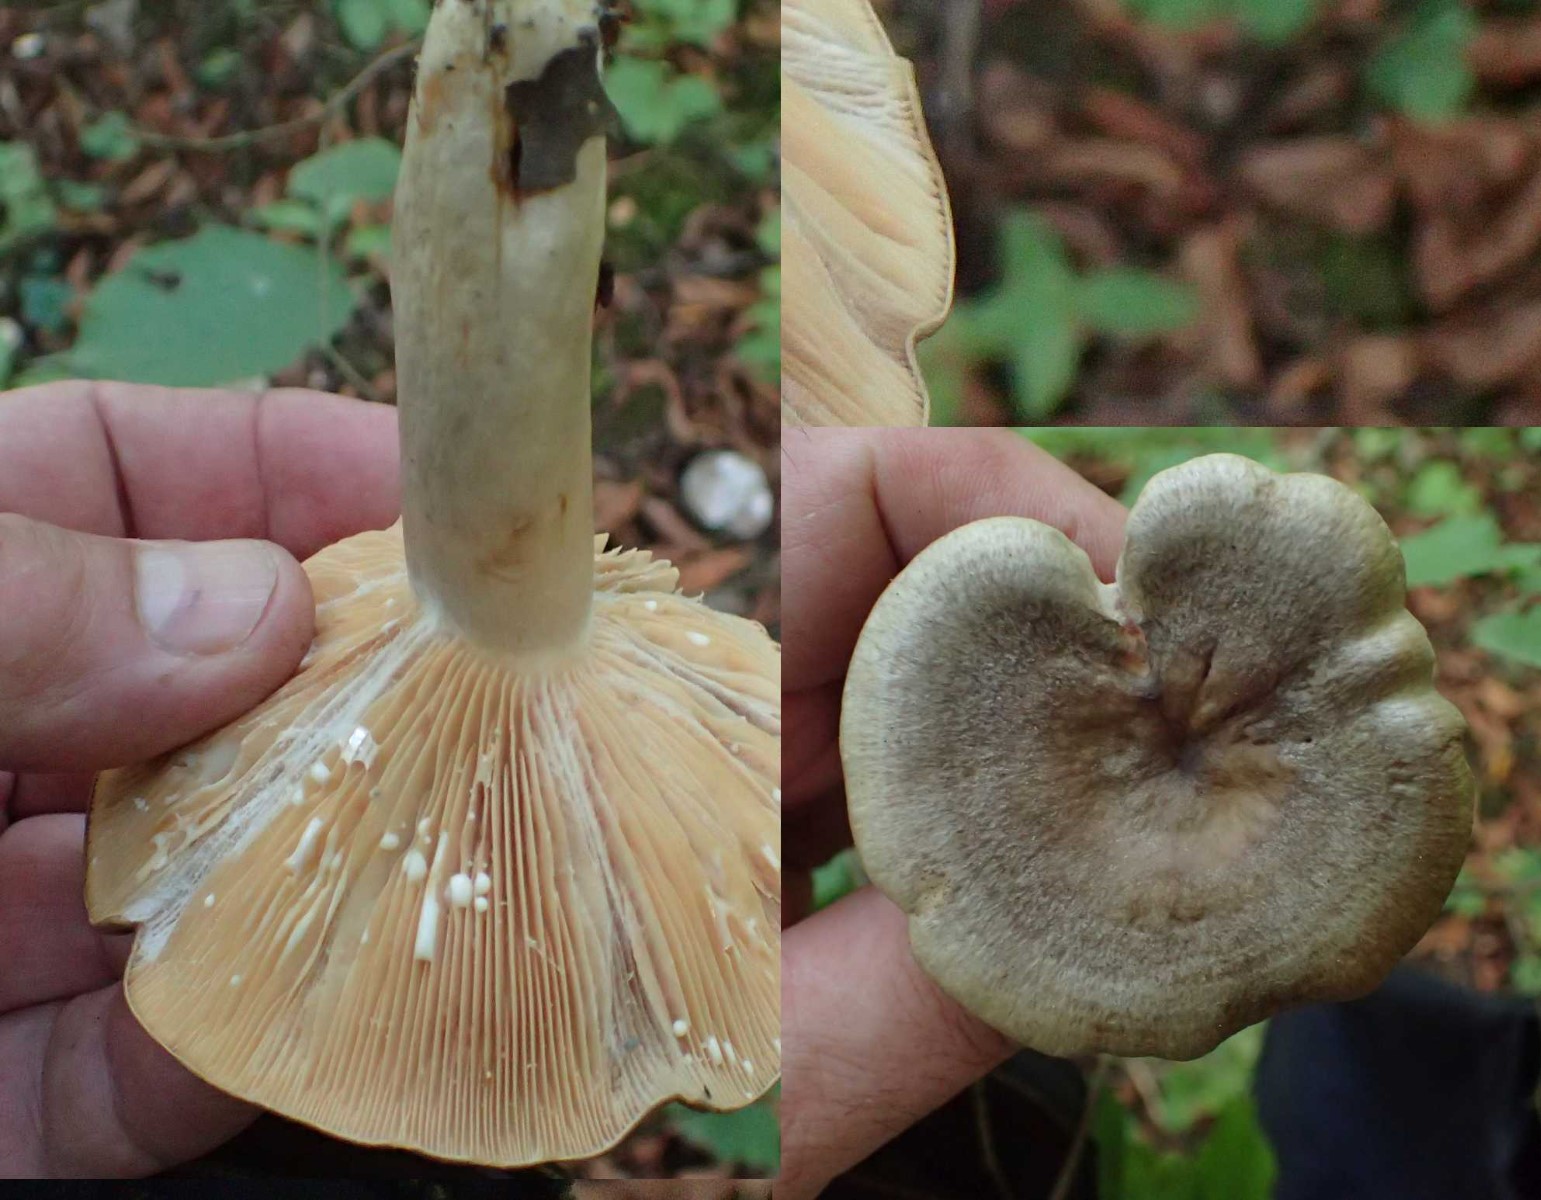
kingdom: Fungi
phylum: Basidiomycota
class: Agaricomycetes
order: Russulales
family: Russulaceae
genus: Lactarius
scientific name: Lactarius pyrogalus
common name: hassel-mælkehat
